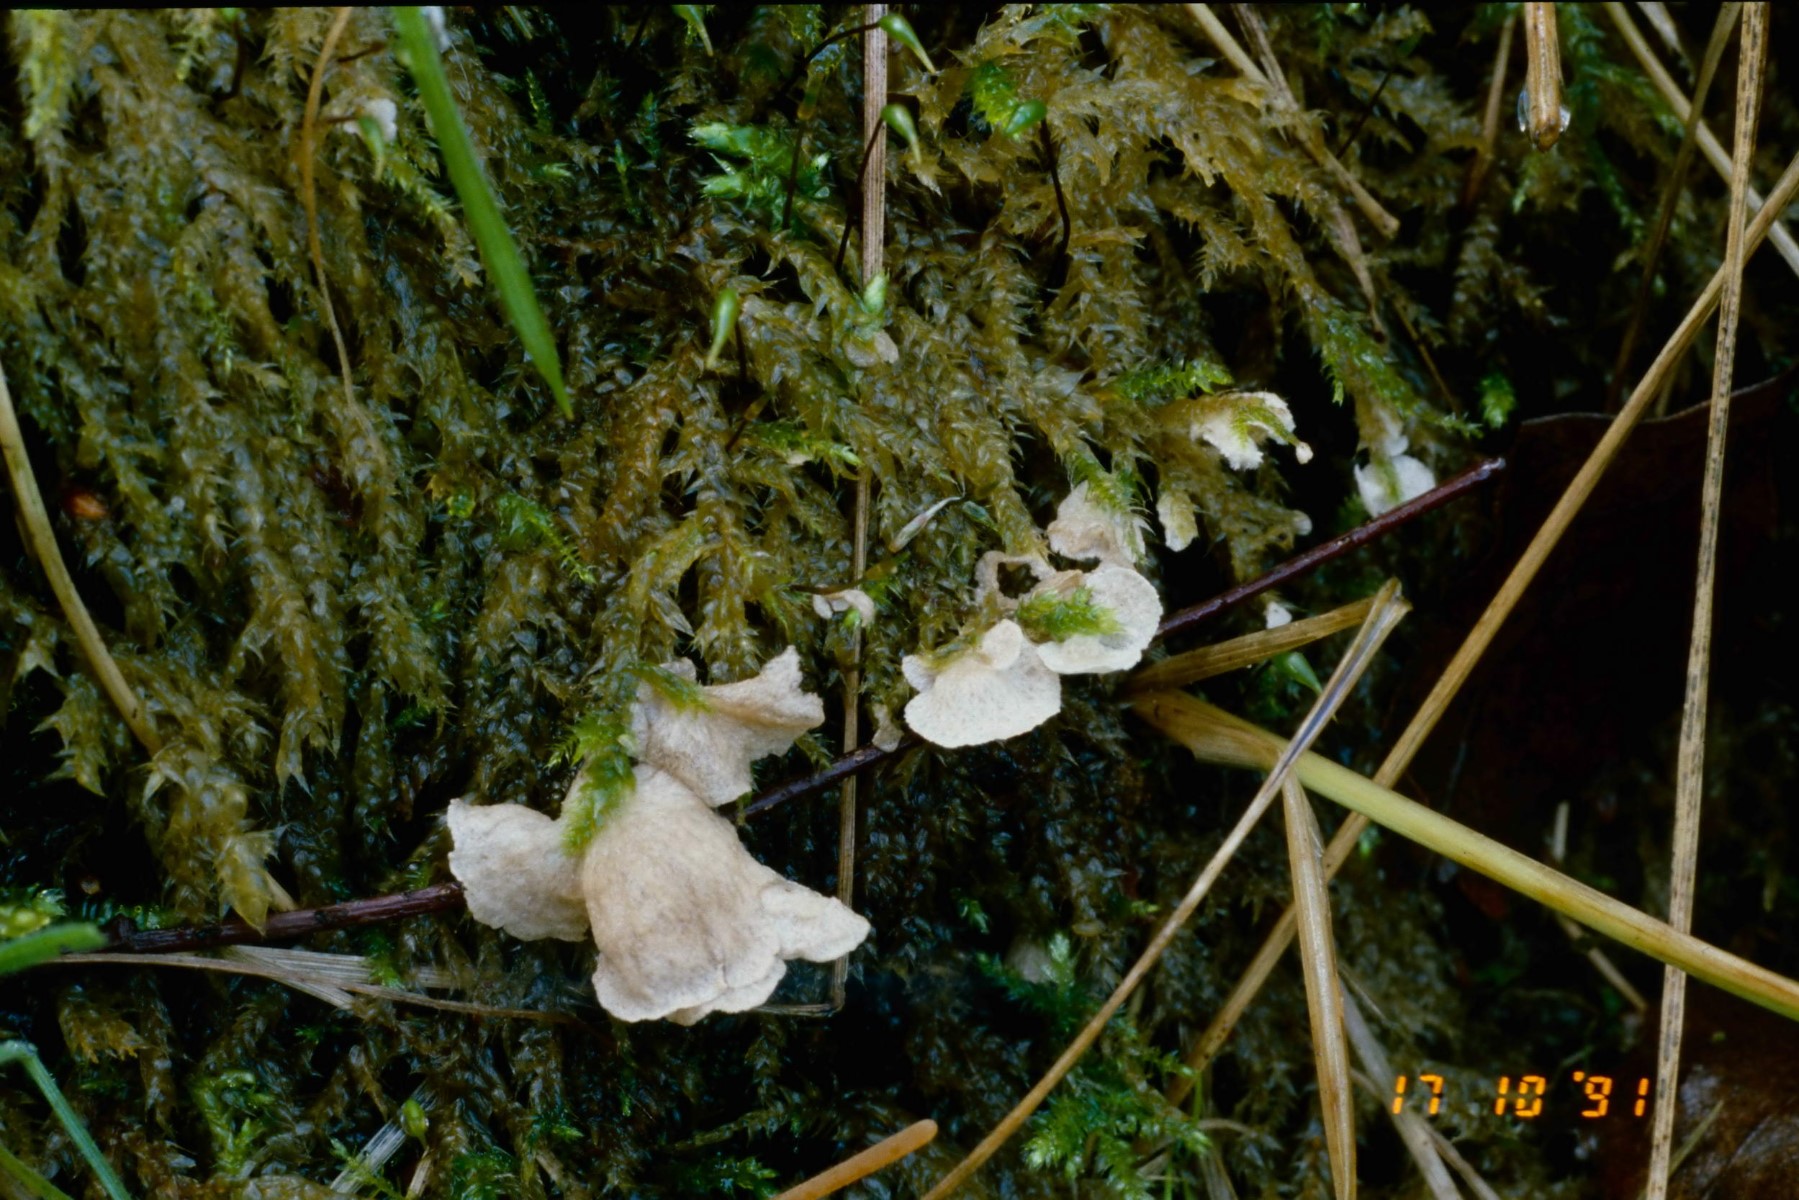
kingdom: Fungi
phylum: Basidiomycota
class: Agaricomycetes
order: Agaricales
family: Hygrophoraceae
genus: Arrhenia
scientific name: Arrhenia retiruga
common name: lille fontænehat
